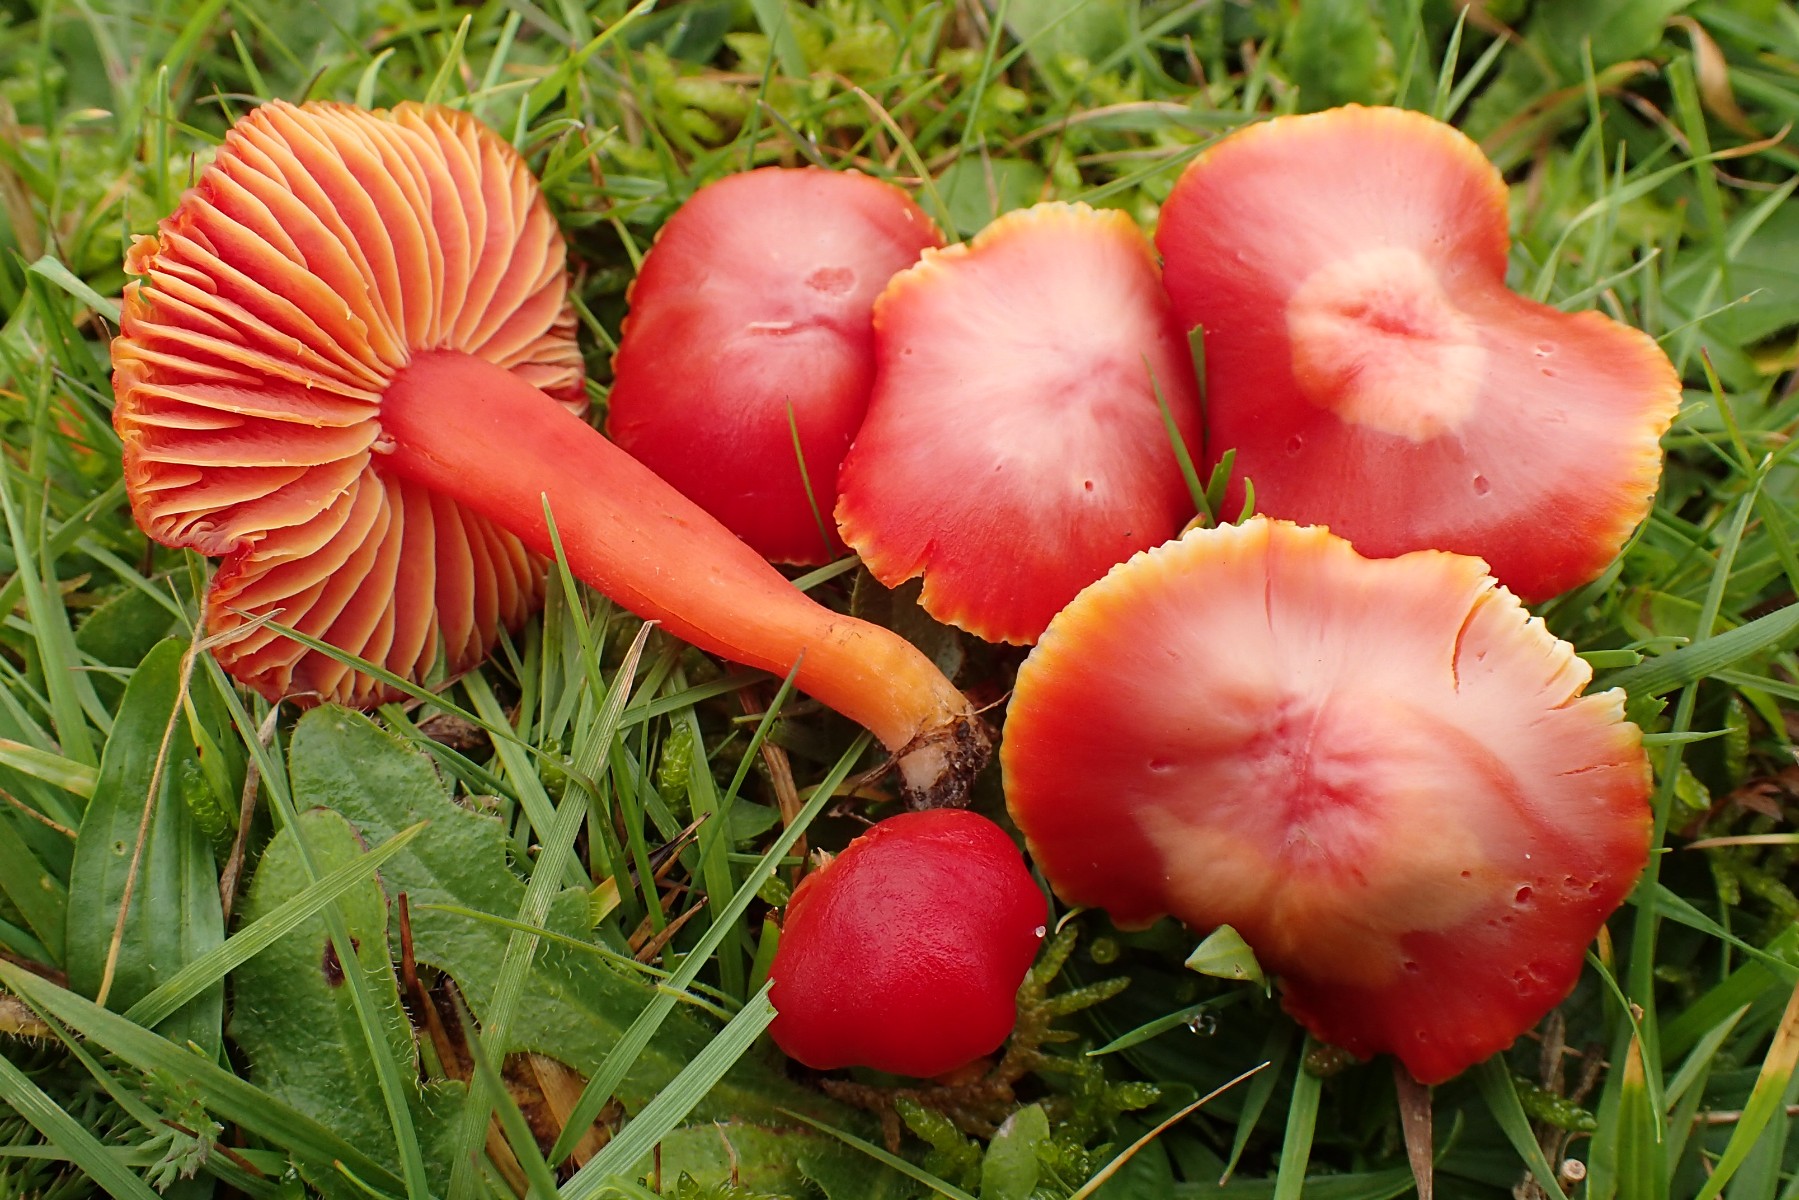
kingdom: Fungi
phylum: Basidiomycota
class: Agaricomycetes
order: Agaricales
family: Hygrophoraceae
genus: Hygrocybe
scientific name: Hygrocybe coccinea
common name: cinnober-vokshat
